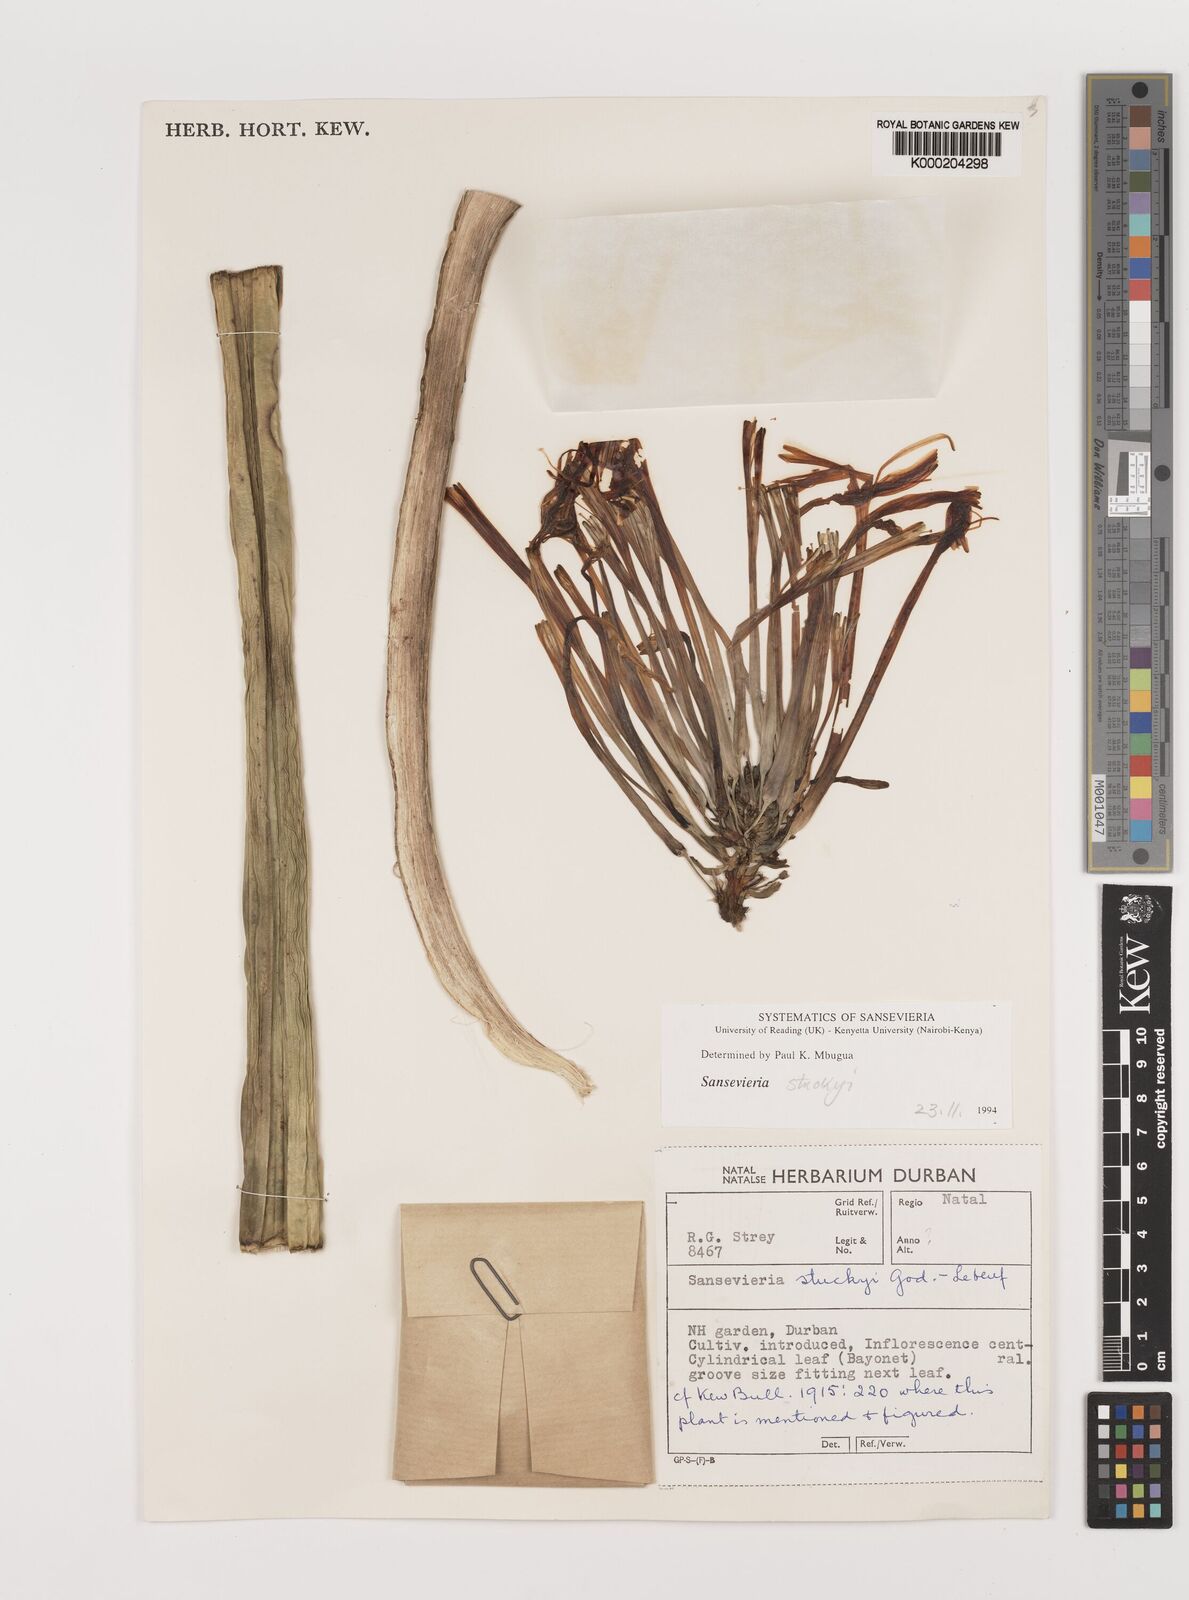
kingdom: Plantae
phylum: Tracheophyta
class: Liliopsida
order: Asparagales
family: Asparagaceae
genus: Dracaena
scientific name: Dracaena stuckyi
